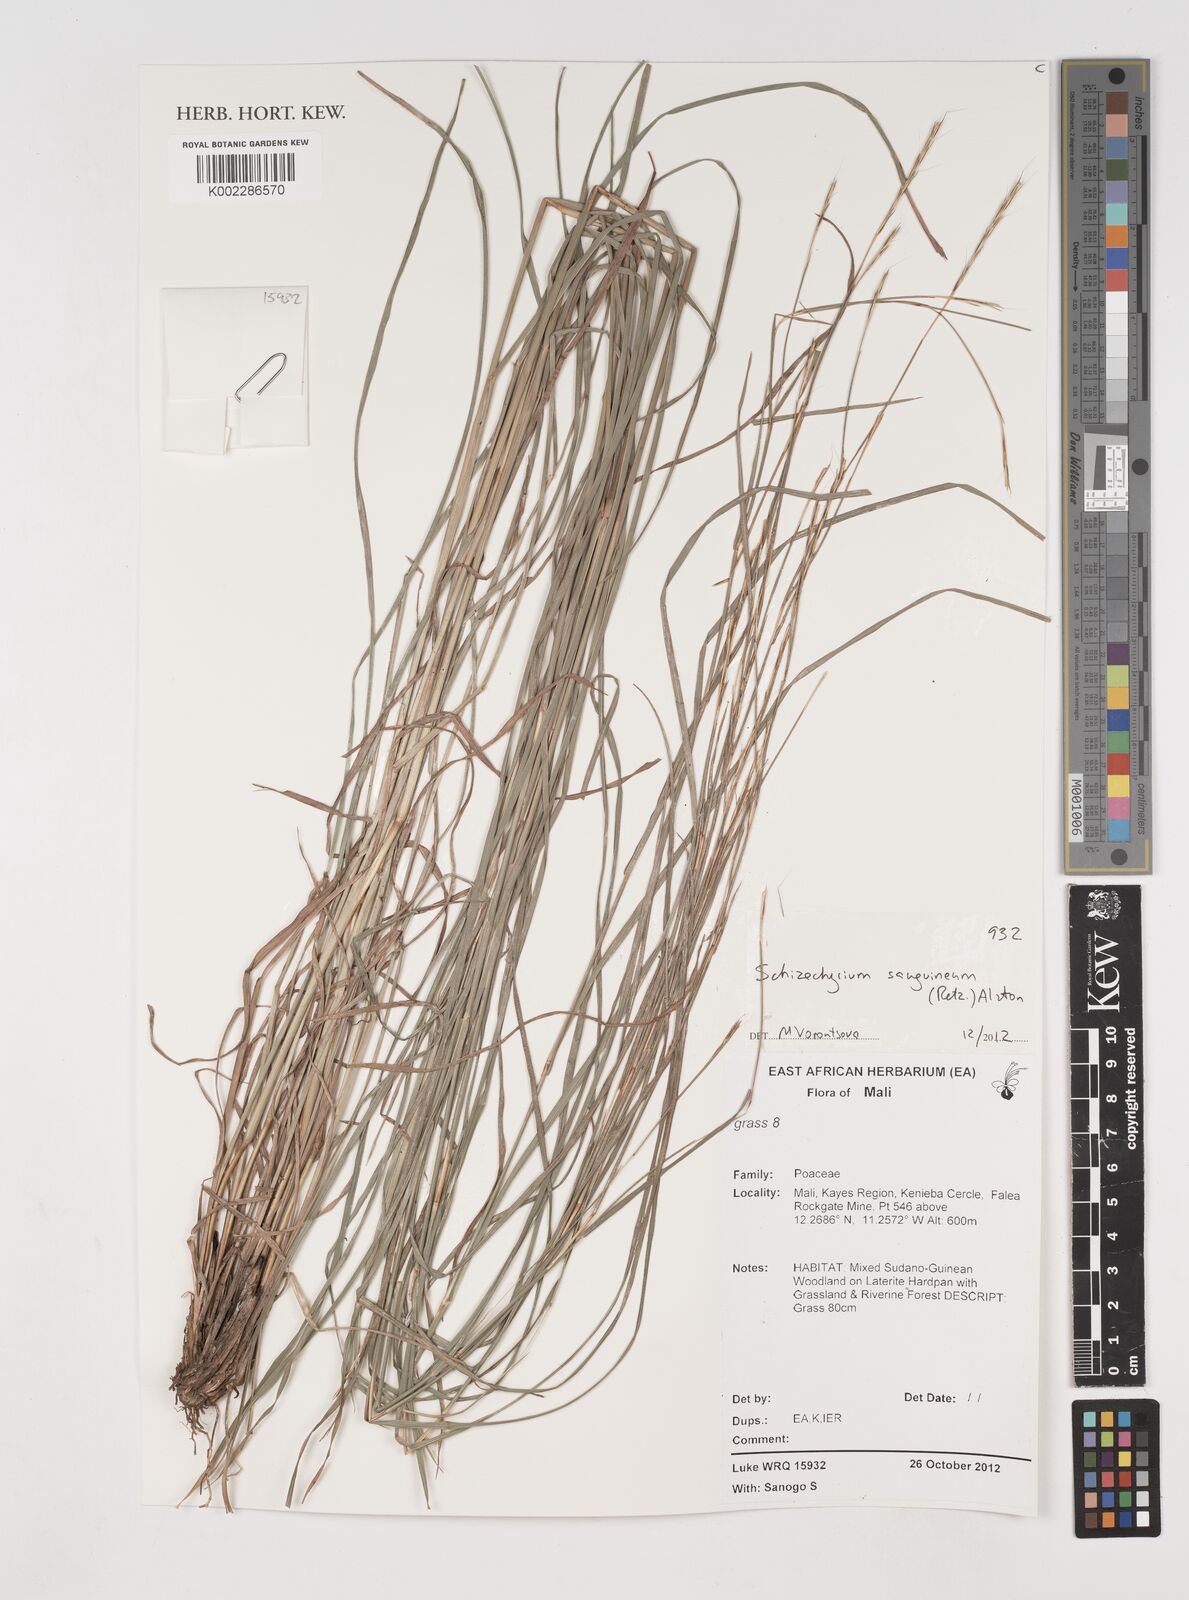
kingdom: Plantae
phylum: Tracheophyta
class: Liliopsida
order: Poales
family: Poaceae
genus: Schizachyrium
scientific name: Schizachyrium sanguineum
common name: Crimson bluestem
